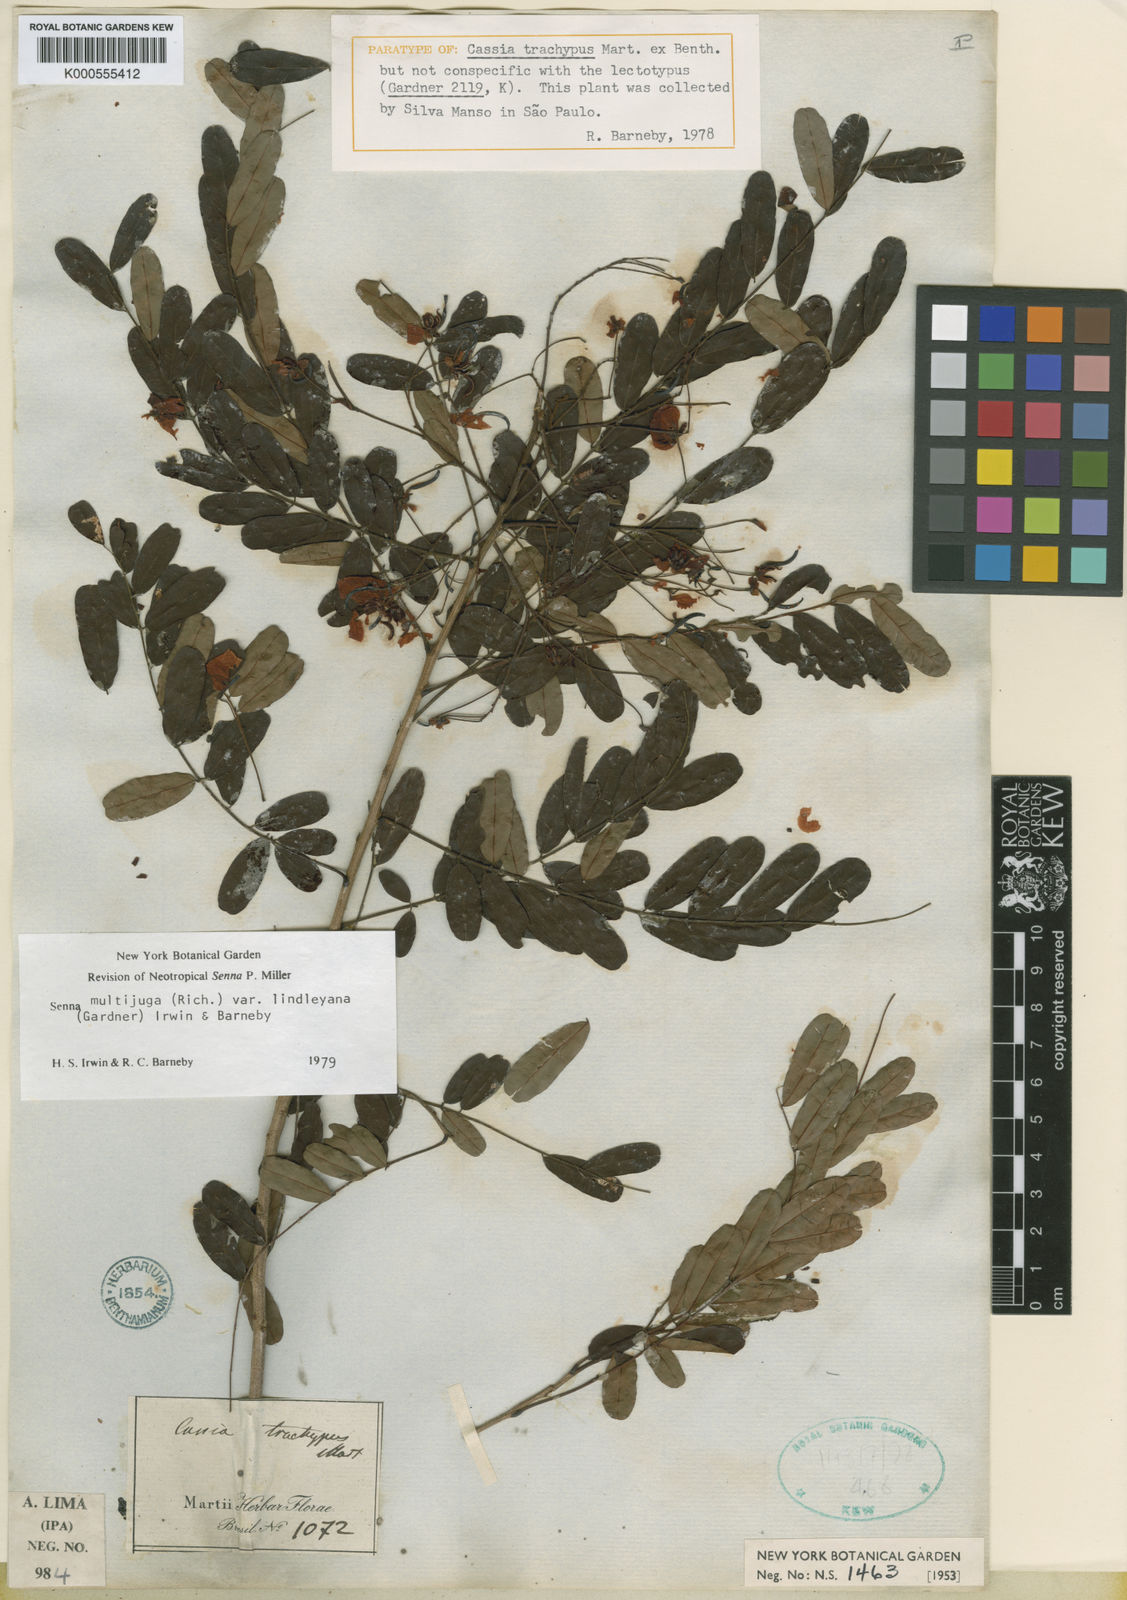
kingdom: Plantae
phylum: Tracheophyta
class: Magnoliopsida
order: Fabales
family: Fabaceae
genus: Senna
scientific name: Senna multijuga
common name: False sicklepod
